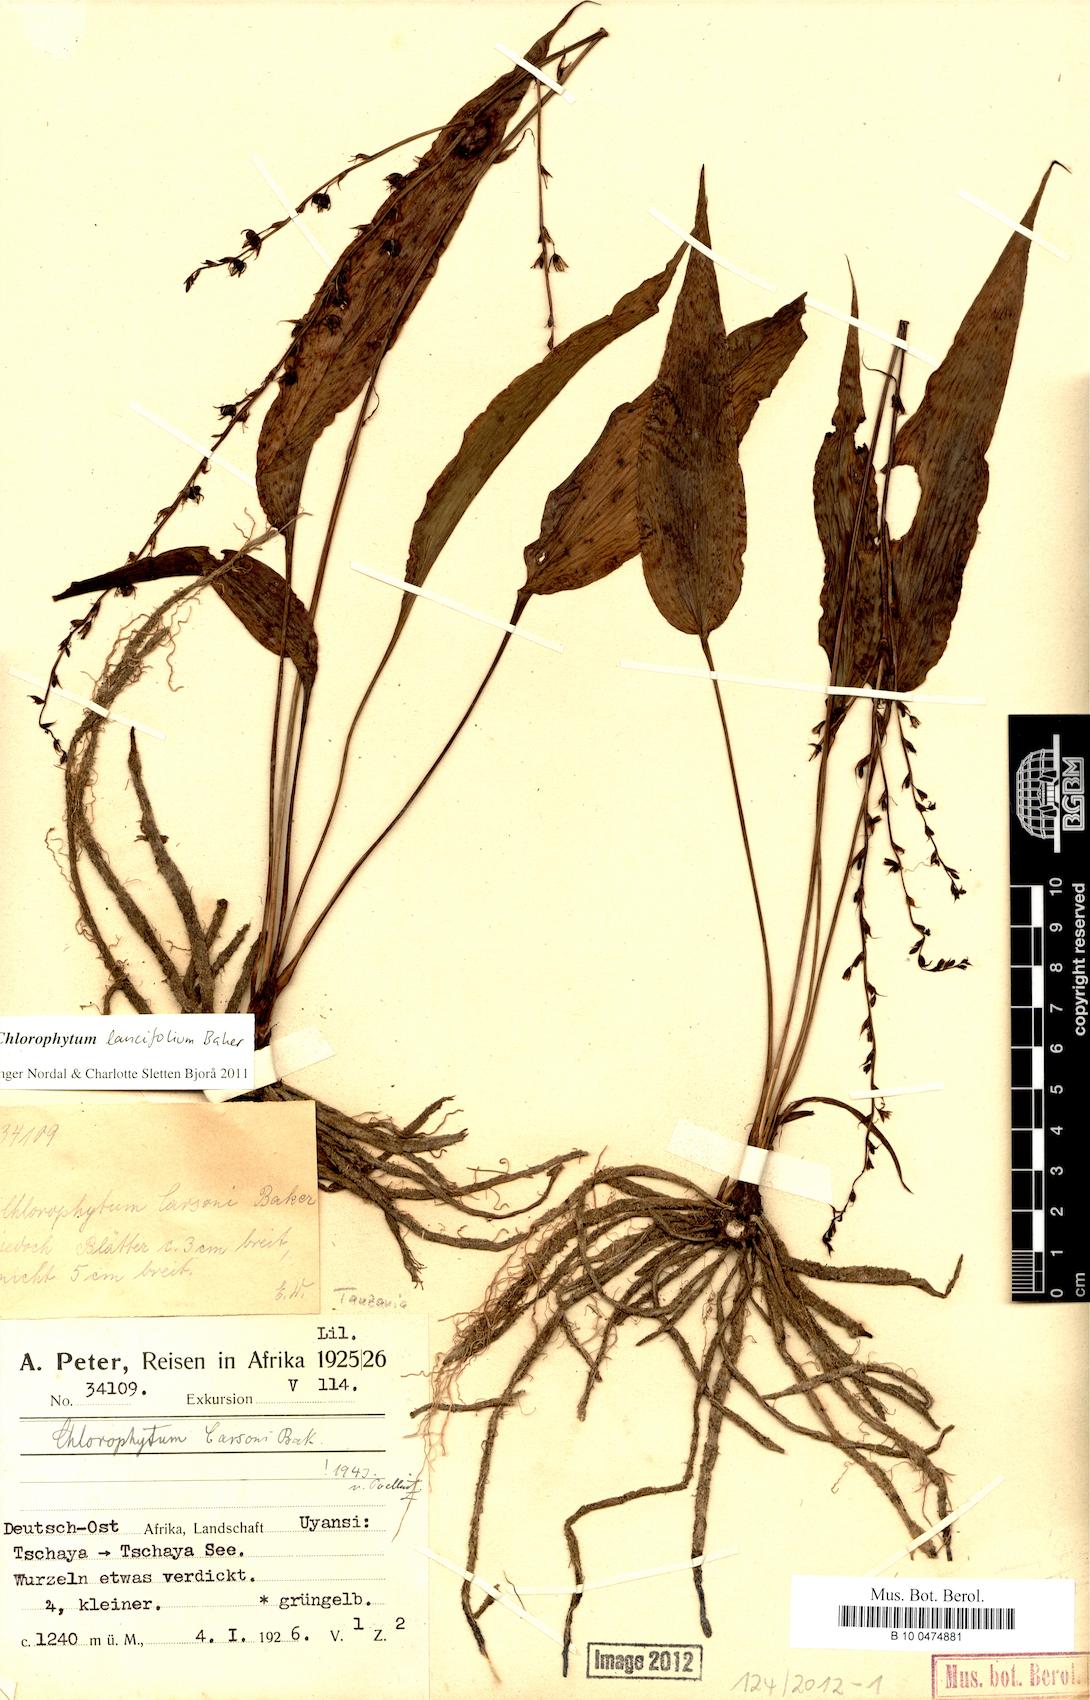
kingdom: Plantae
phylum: Tracheophyta
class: Liliopsida
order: Asparagales
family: Asparagaceae
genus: Chlorophytum
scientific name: Chlorophytum lancifolium
